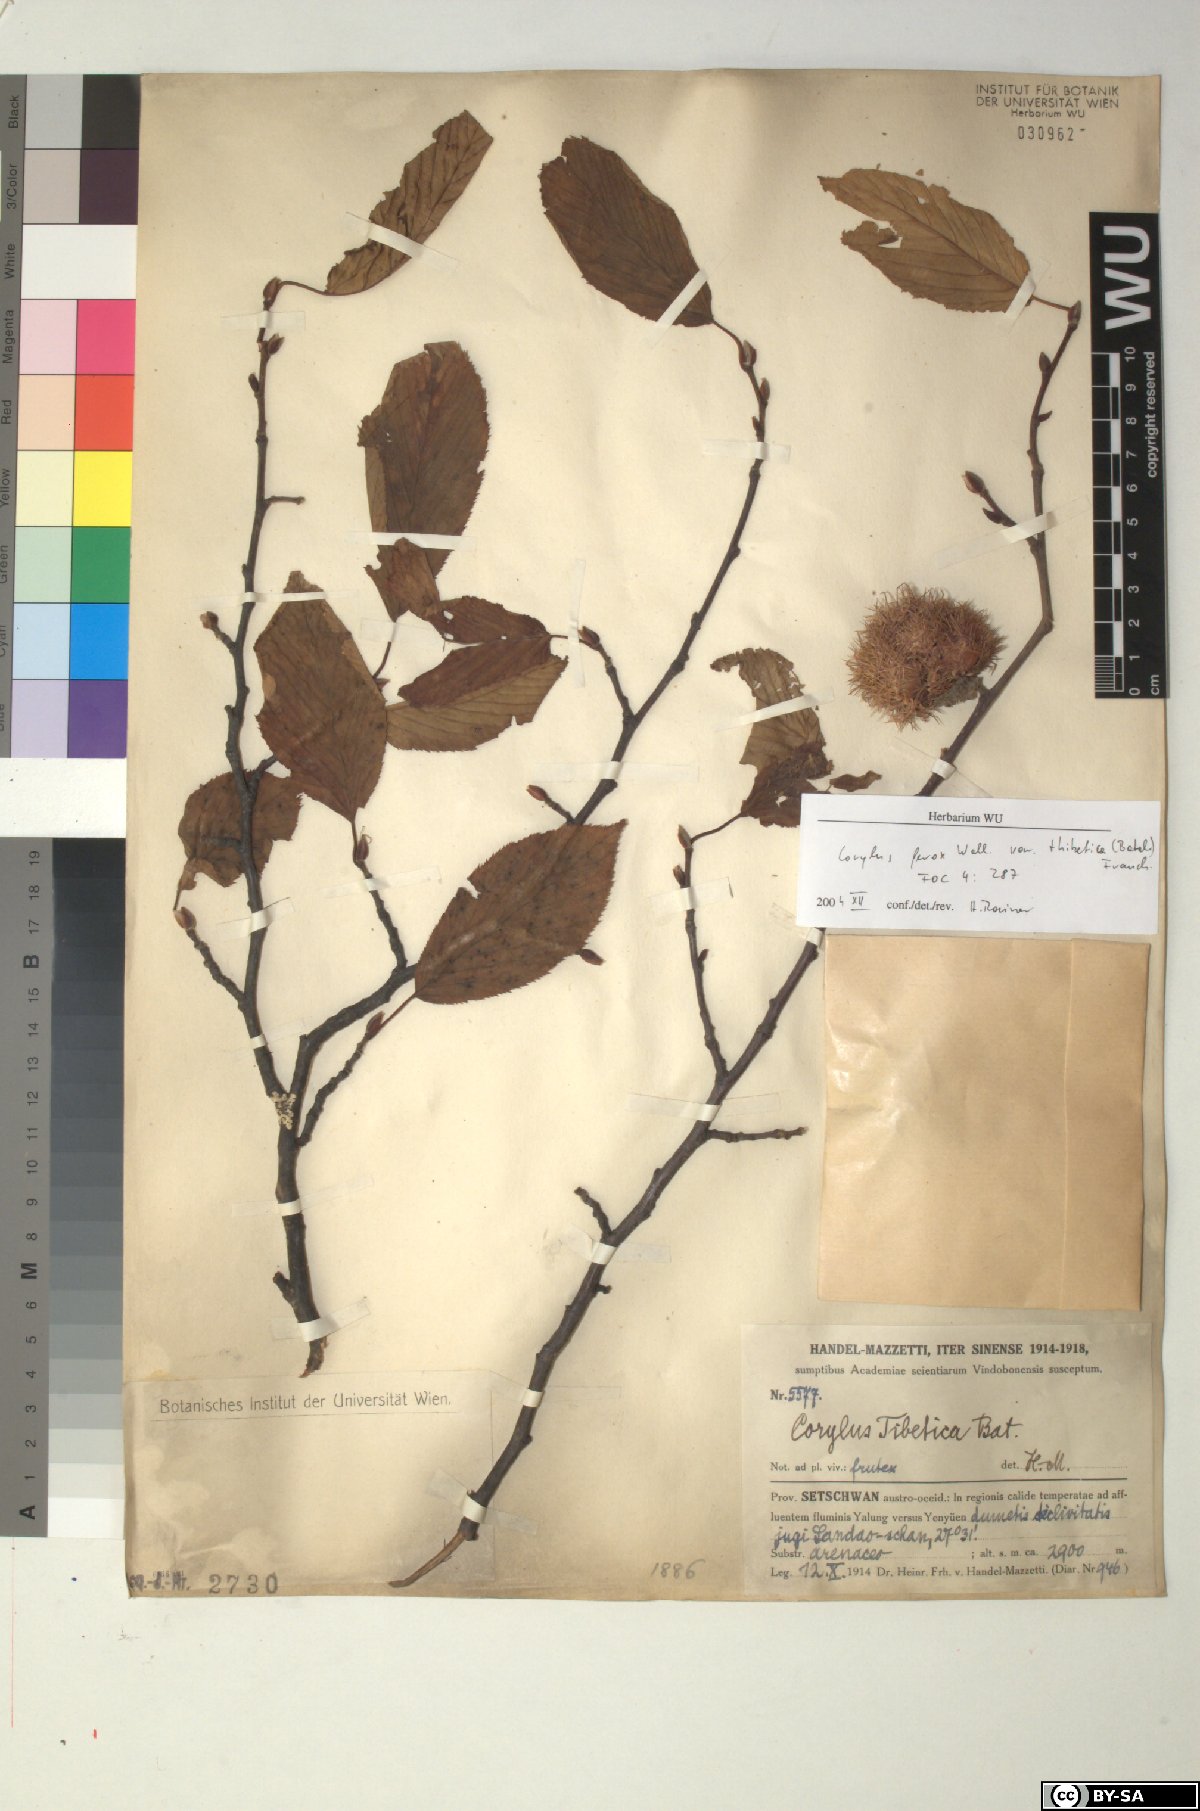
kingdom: Plantae
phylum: Tracheophyta
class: Magnoliopsida
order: Fagales
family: Betulaceae
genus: Corylus
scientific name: Corylus ferox
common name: Himalayan hazel
